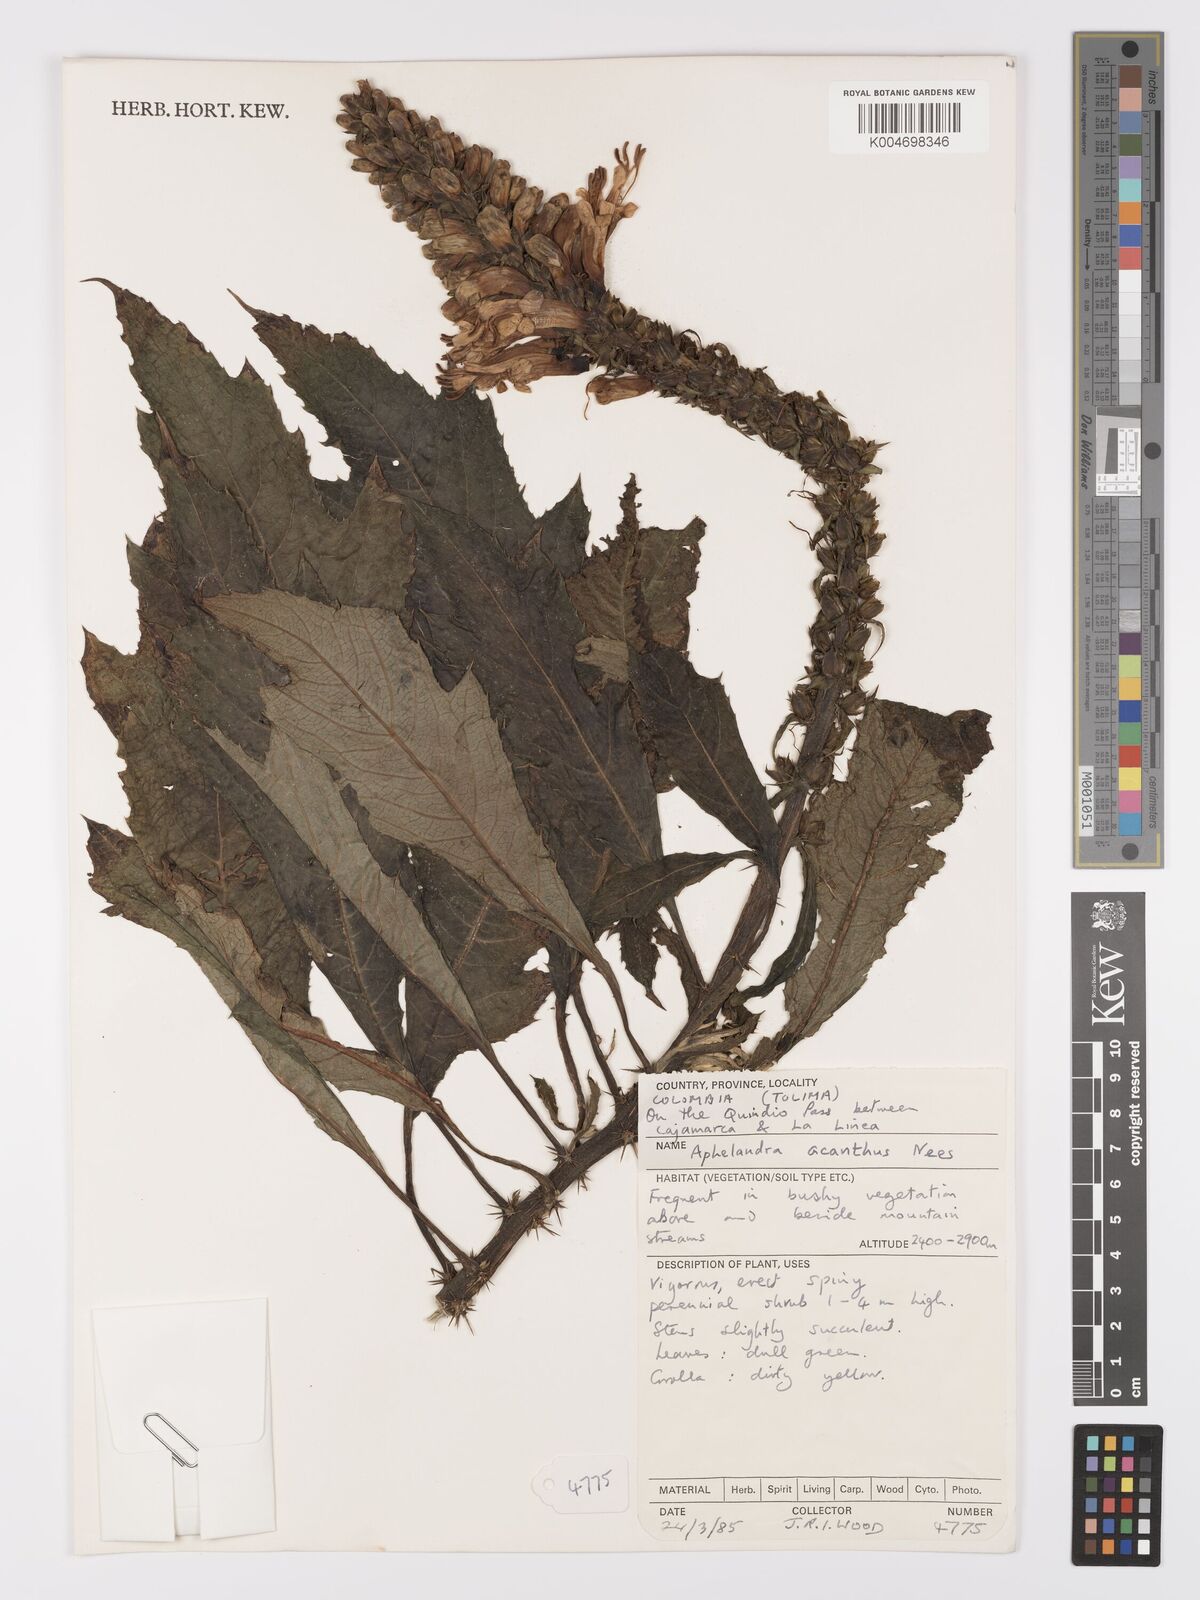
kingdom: Plantae
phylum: Tracheophyta
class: Magnoliopsida
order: Lamiales
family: Acanthaceae
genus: Aphelandra
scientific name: Aphelandra acanthus
